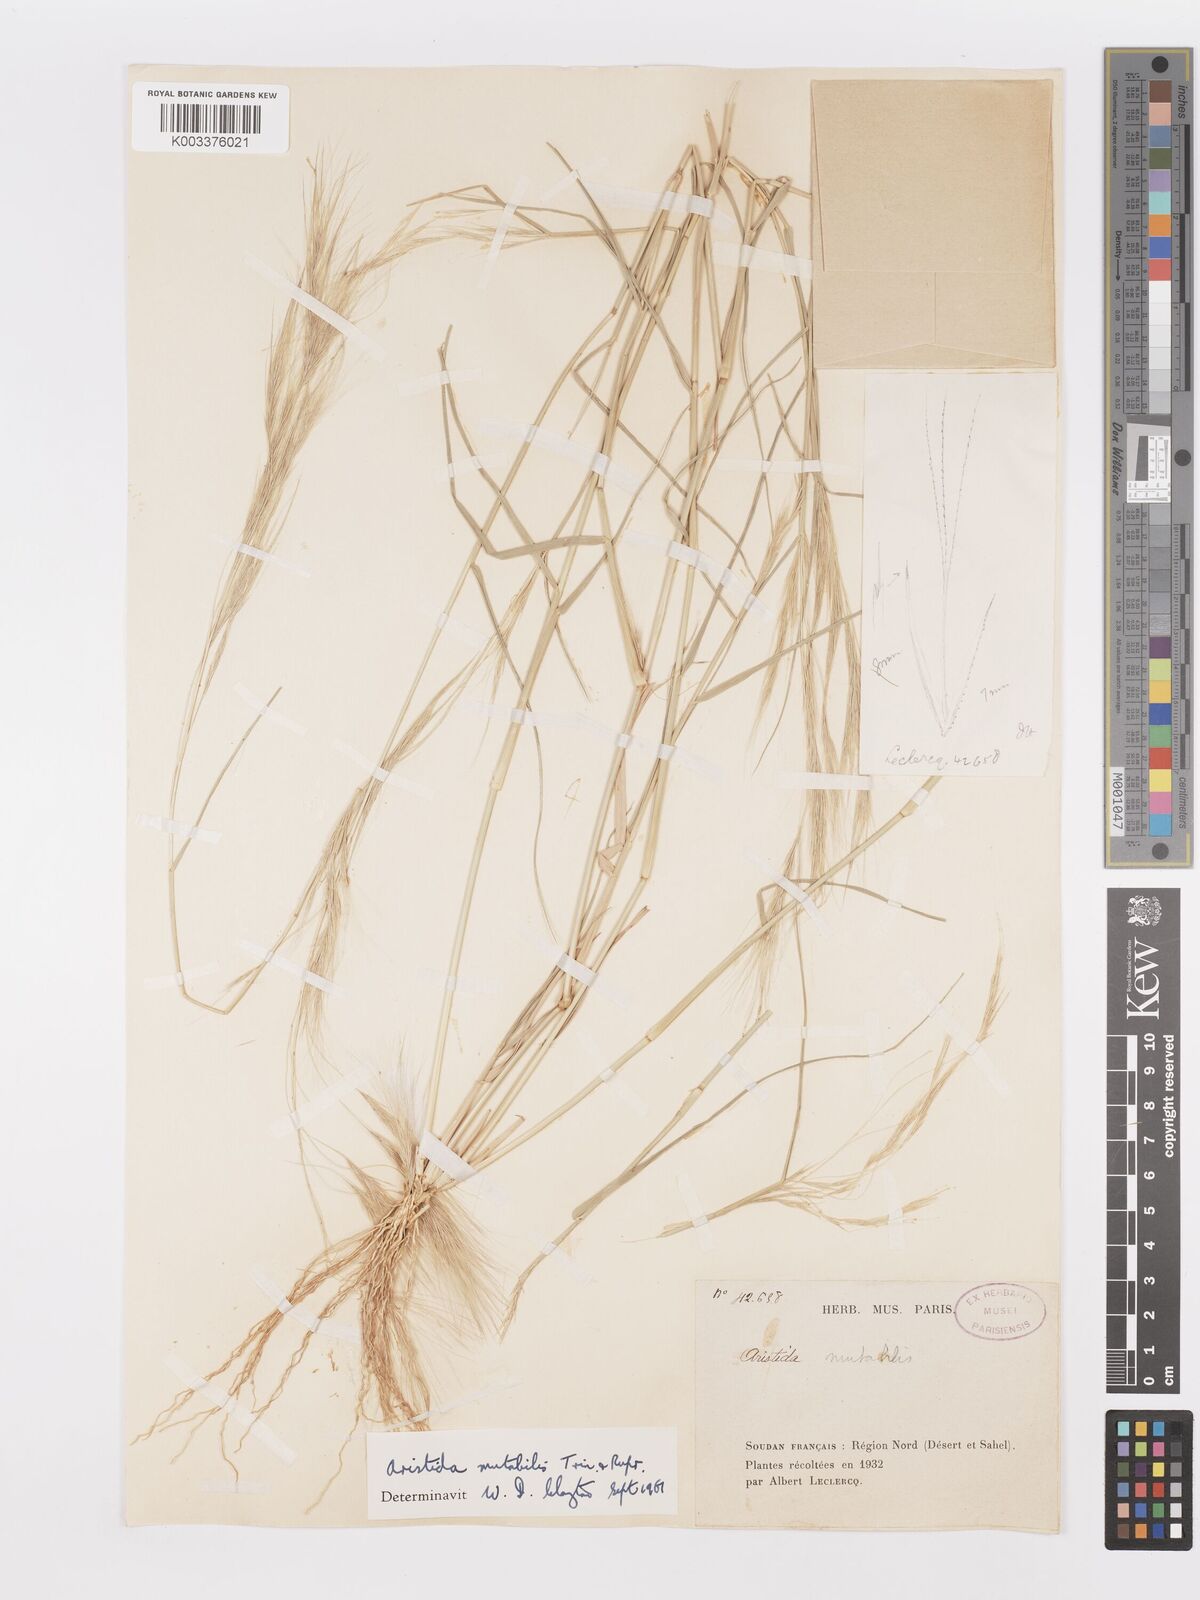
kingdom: Plantae
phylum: Tracheophyta
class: Liliopsida
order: Poales
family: Poaceae
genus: Aristida
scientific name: Aristida mutabilis
